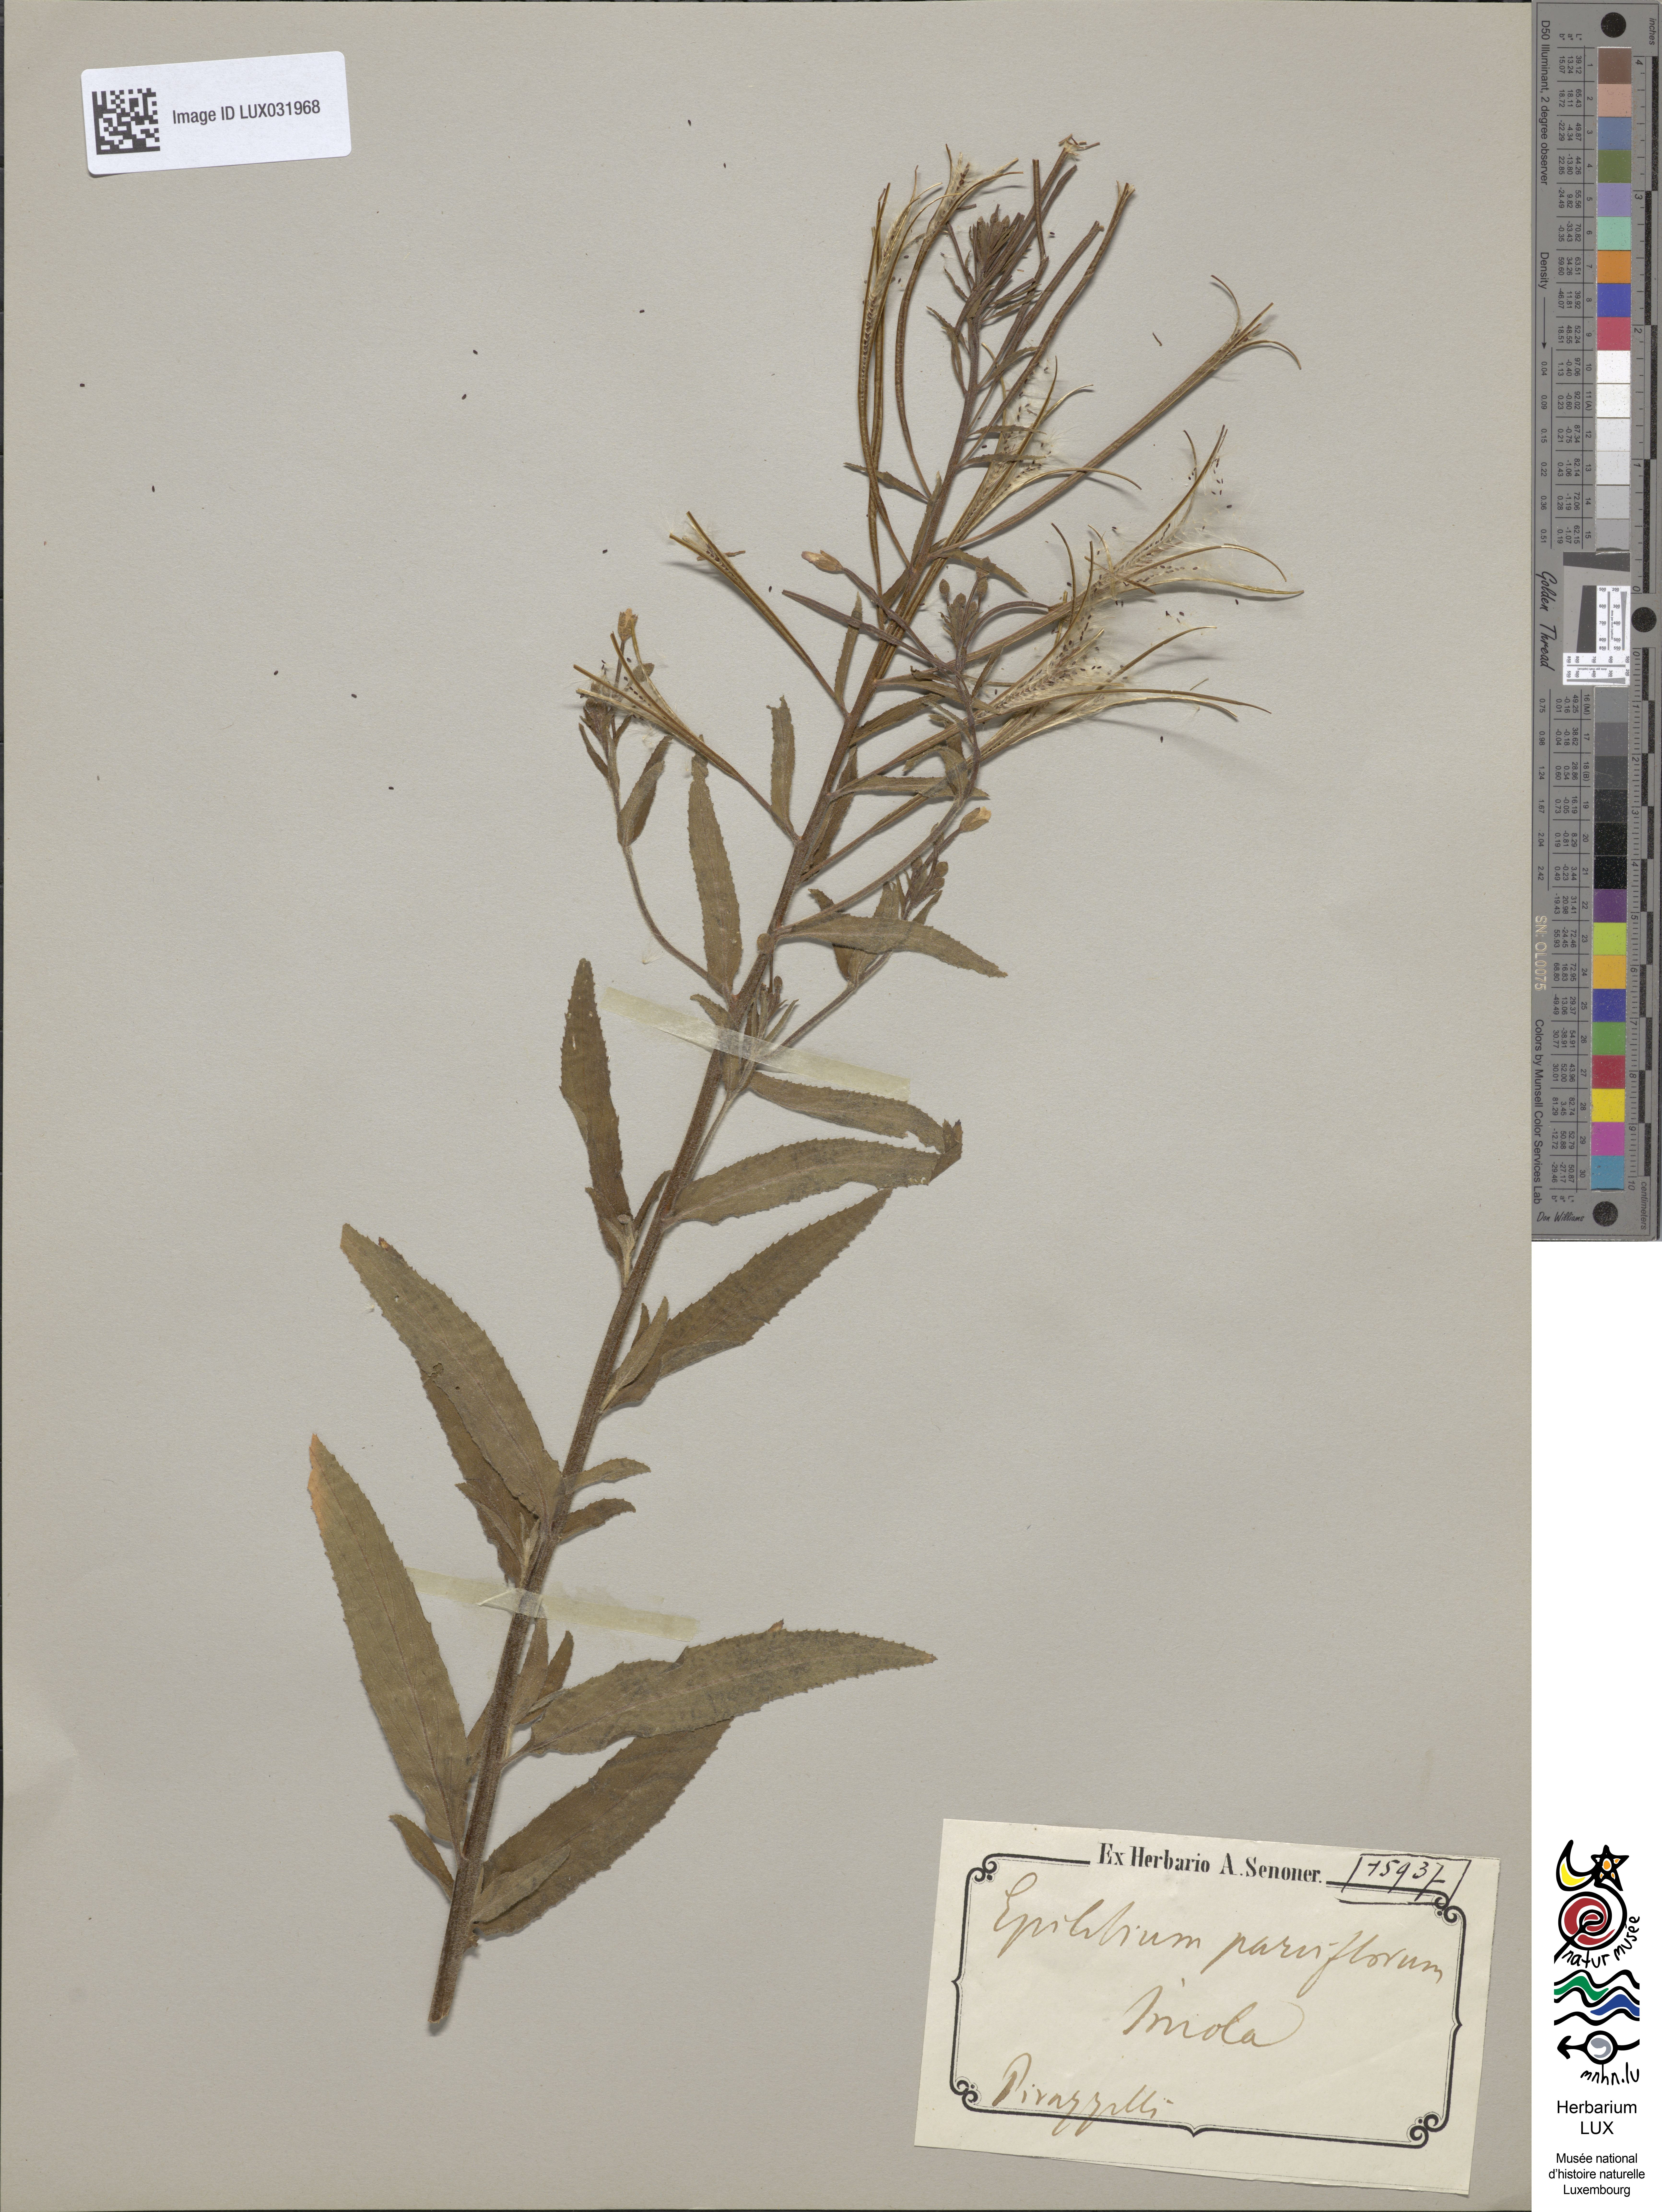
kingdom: Plantae
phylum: Tracheophyta
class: Magnoliopsida
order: Myrtales
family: Onagraceae
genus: Epilobium
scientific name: Epilobium parviflorum
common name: Hoary willowherb
